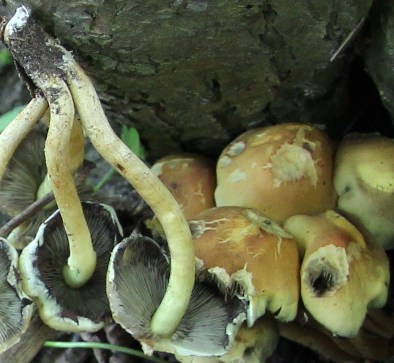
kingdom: Fungi
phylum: Basidiomycota
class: Agaricomycetes
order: Agaricales
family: Strophariaceae
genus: Hypholoma
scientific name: Hypholoma fasciculare
